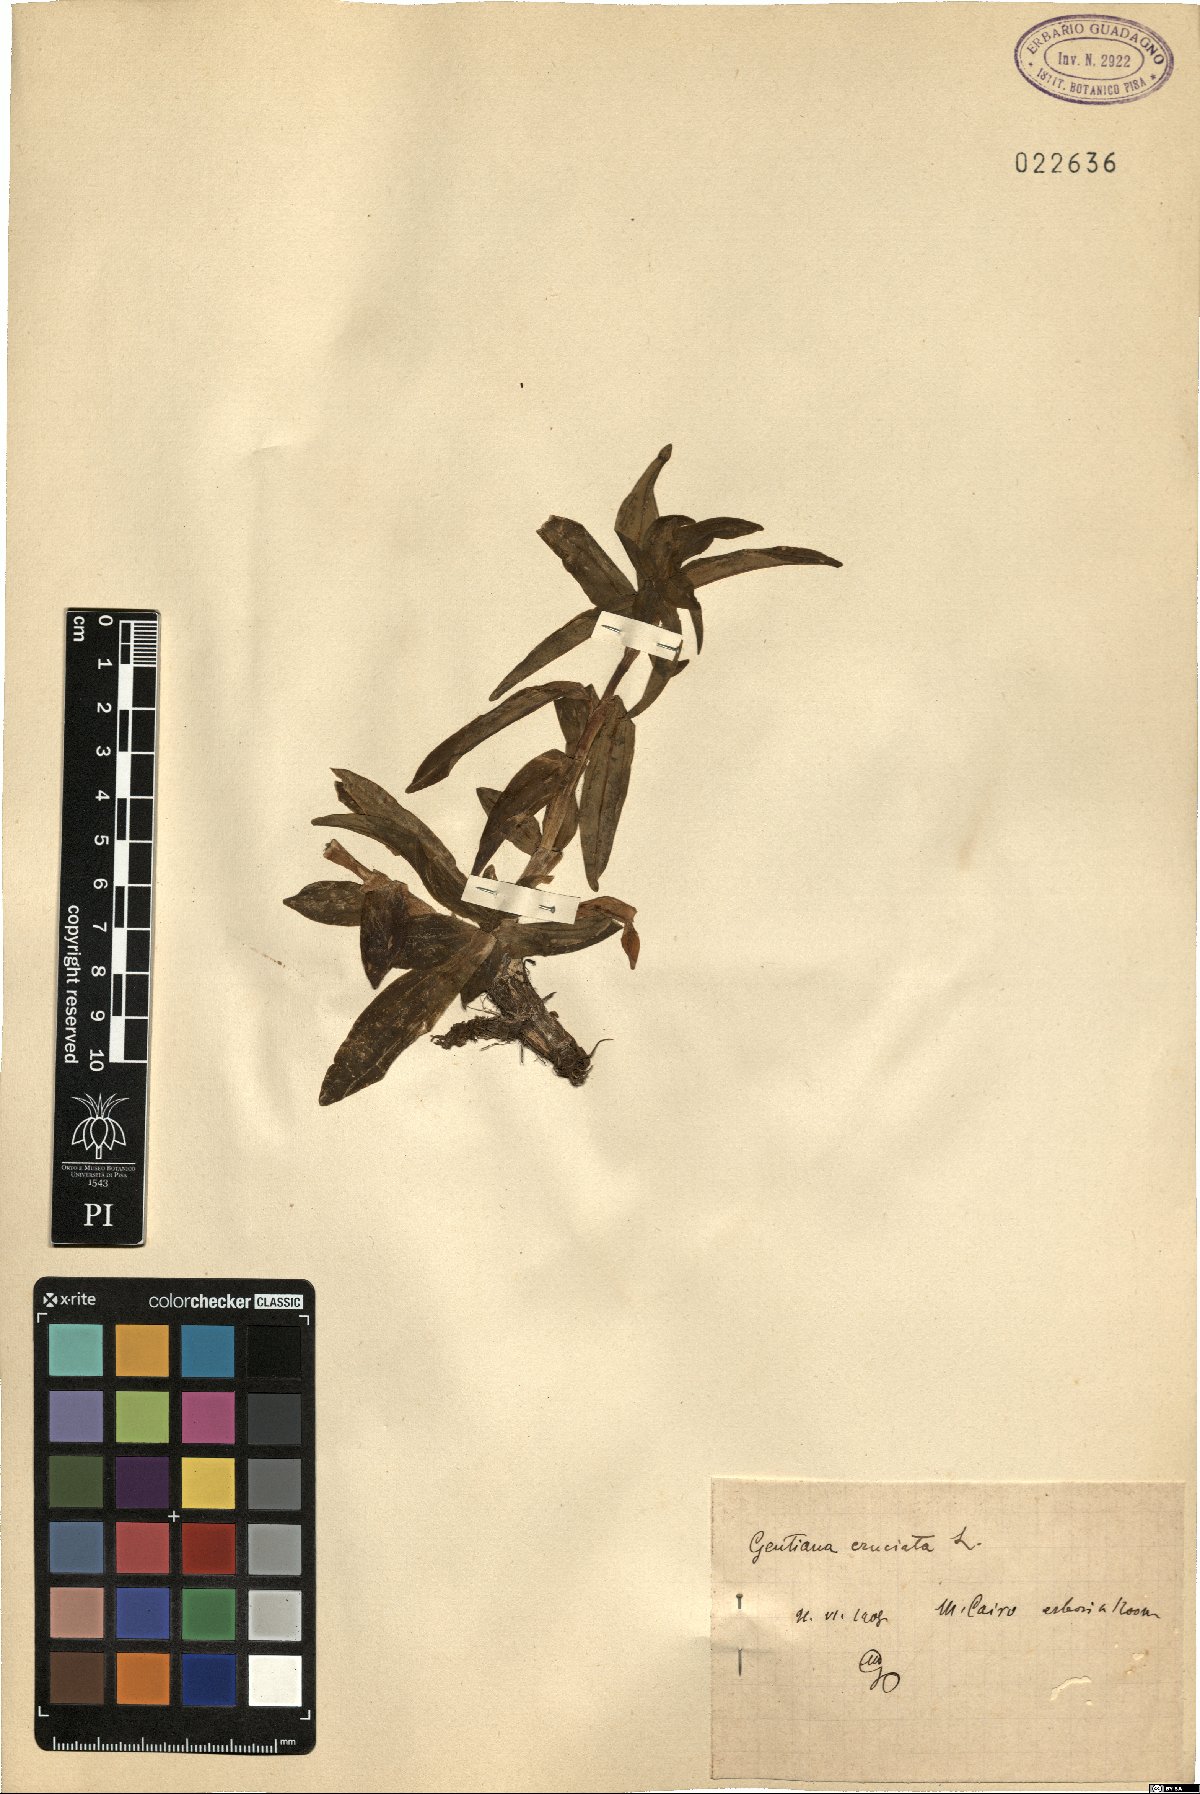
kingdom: Plantae
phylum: Tracheophyta
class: Magnoliopsida
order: Gentianales
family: Gentianaceae
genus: Gentiana
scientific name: Gentiana cruciata
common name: Cross gentian
